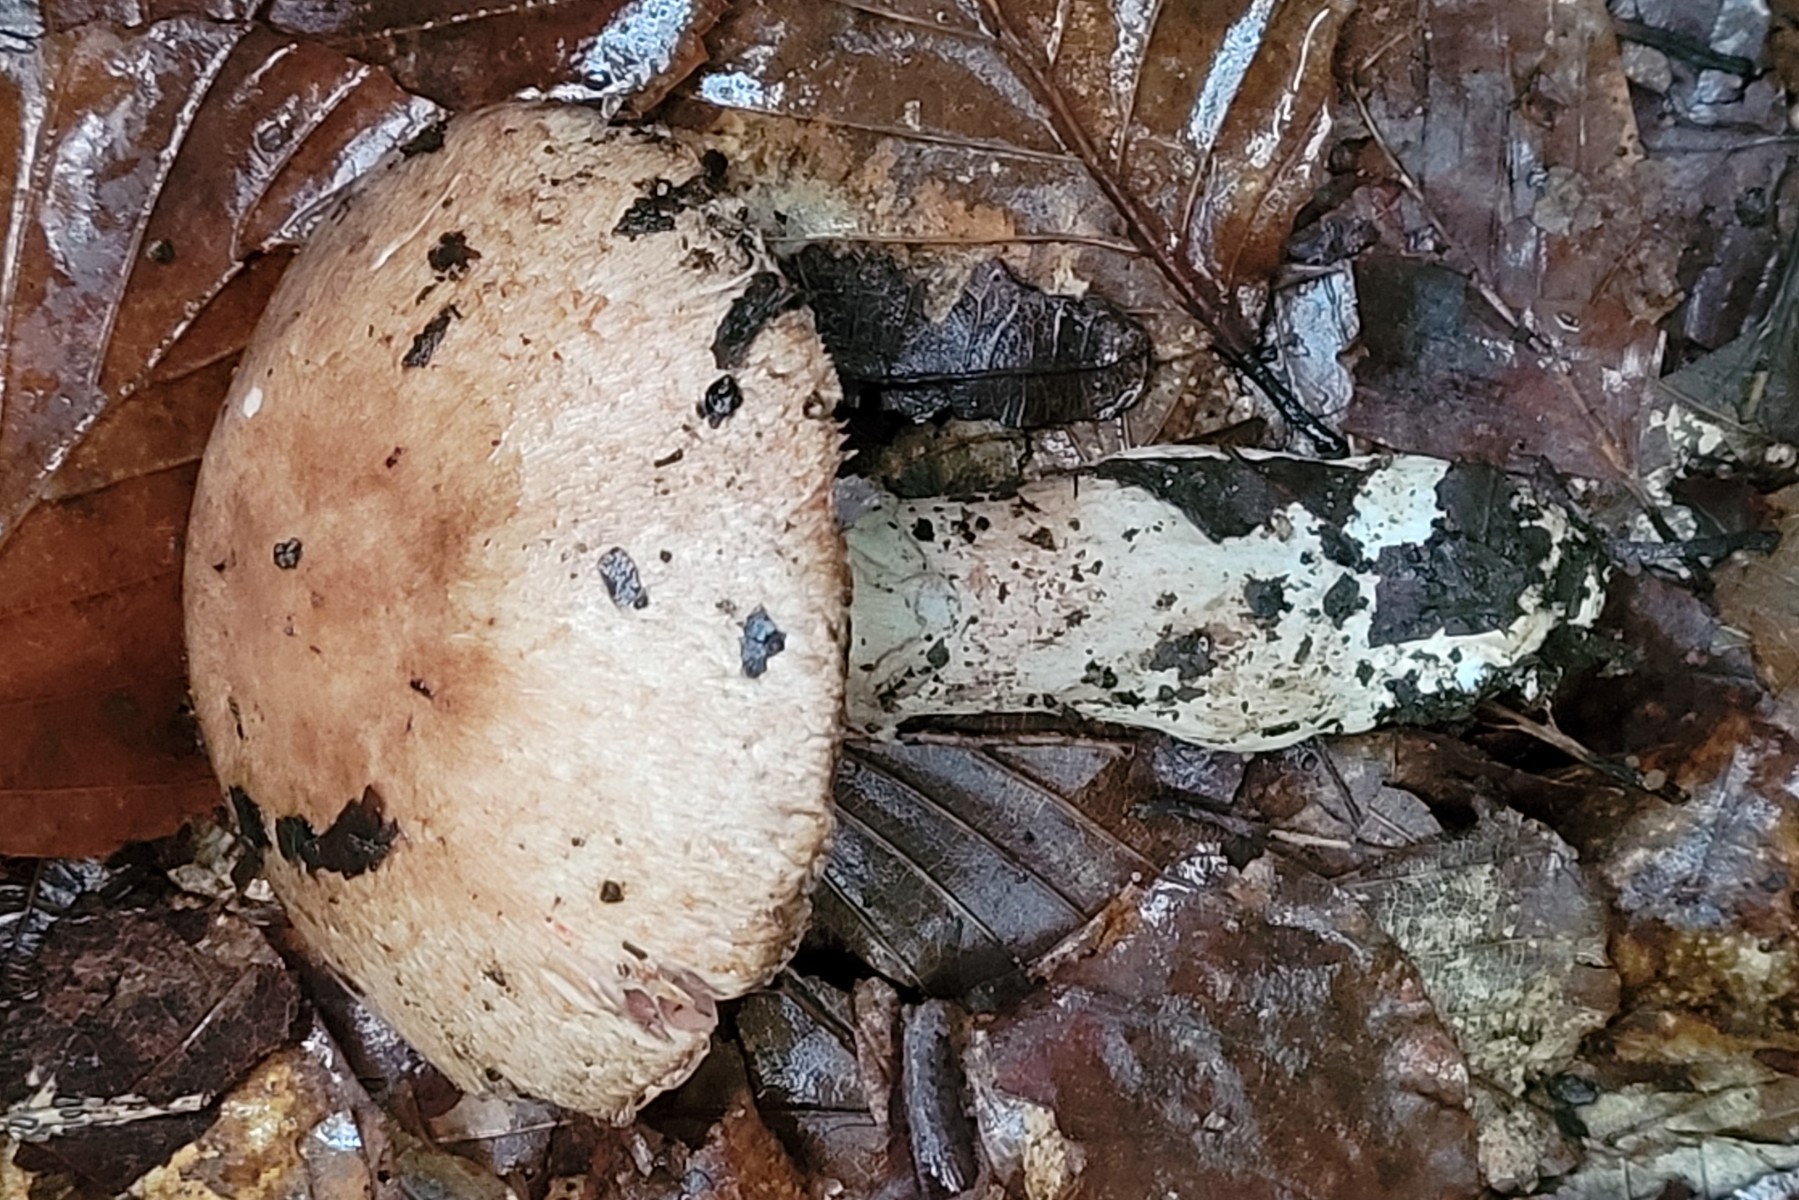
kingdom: Fungi
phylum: Basidiomycota
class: Agaricomycetes
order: Agaricales
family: Agaricaceae
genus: Agaricus
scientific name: Agaricus langei
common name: stor blod-champignon
